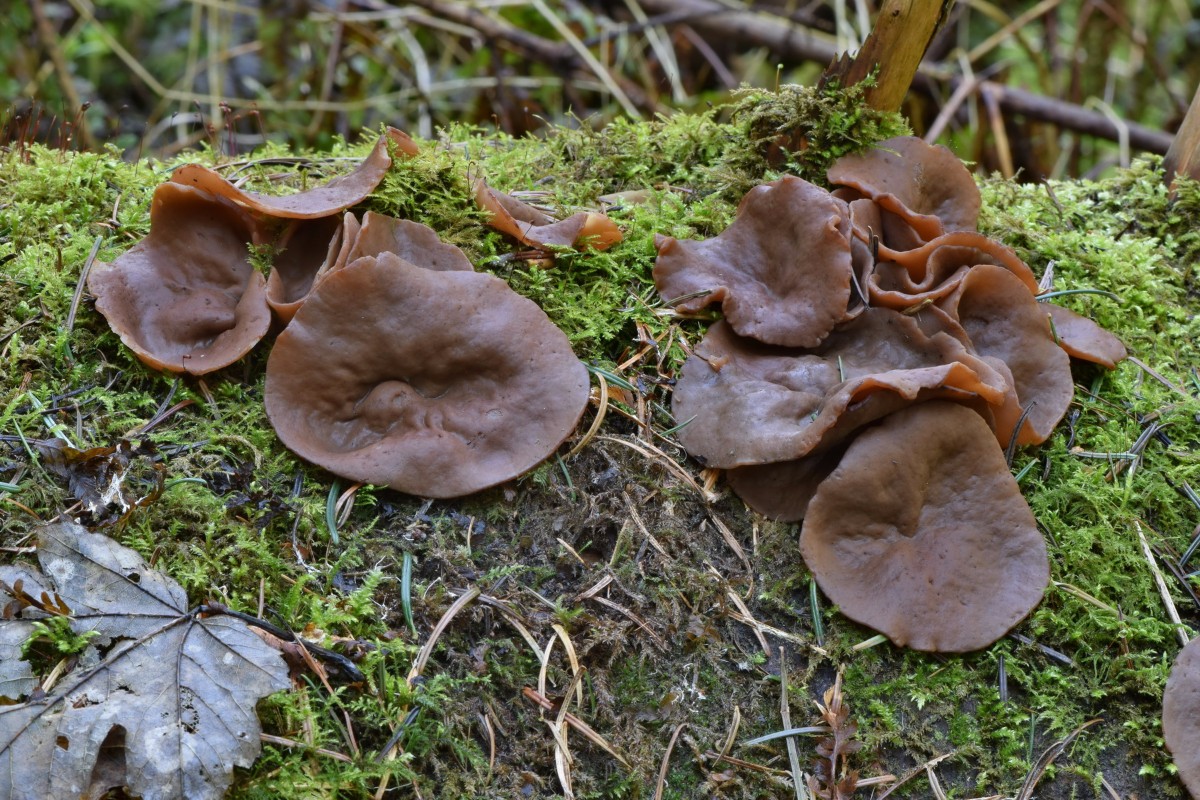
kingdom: Fungi
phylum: Ascomycota
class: Pezizomycetes
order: Pezizales
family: Discinaceae
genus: Discina
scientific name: Discina ancilis
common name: udbredt stenmorkel
